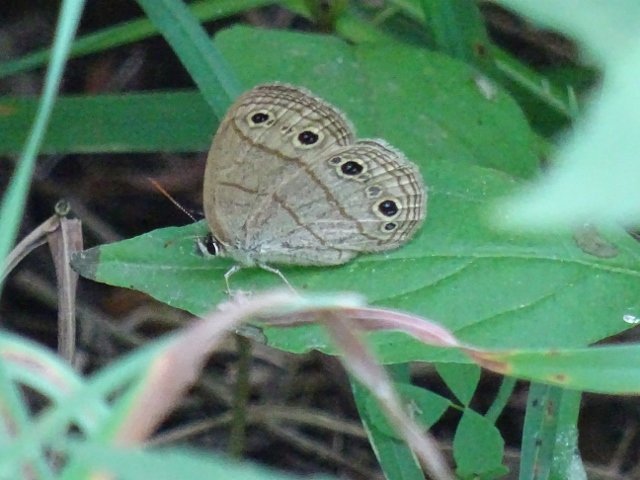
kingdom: Animalia
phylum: Arthropoda
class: Insecta
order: Lepidoptera
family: Nymphalidae
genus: Euptychia
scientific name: Euptychia cymela
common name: Little Wood Satyr
